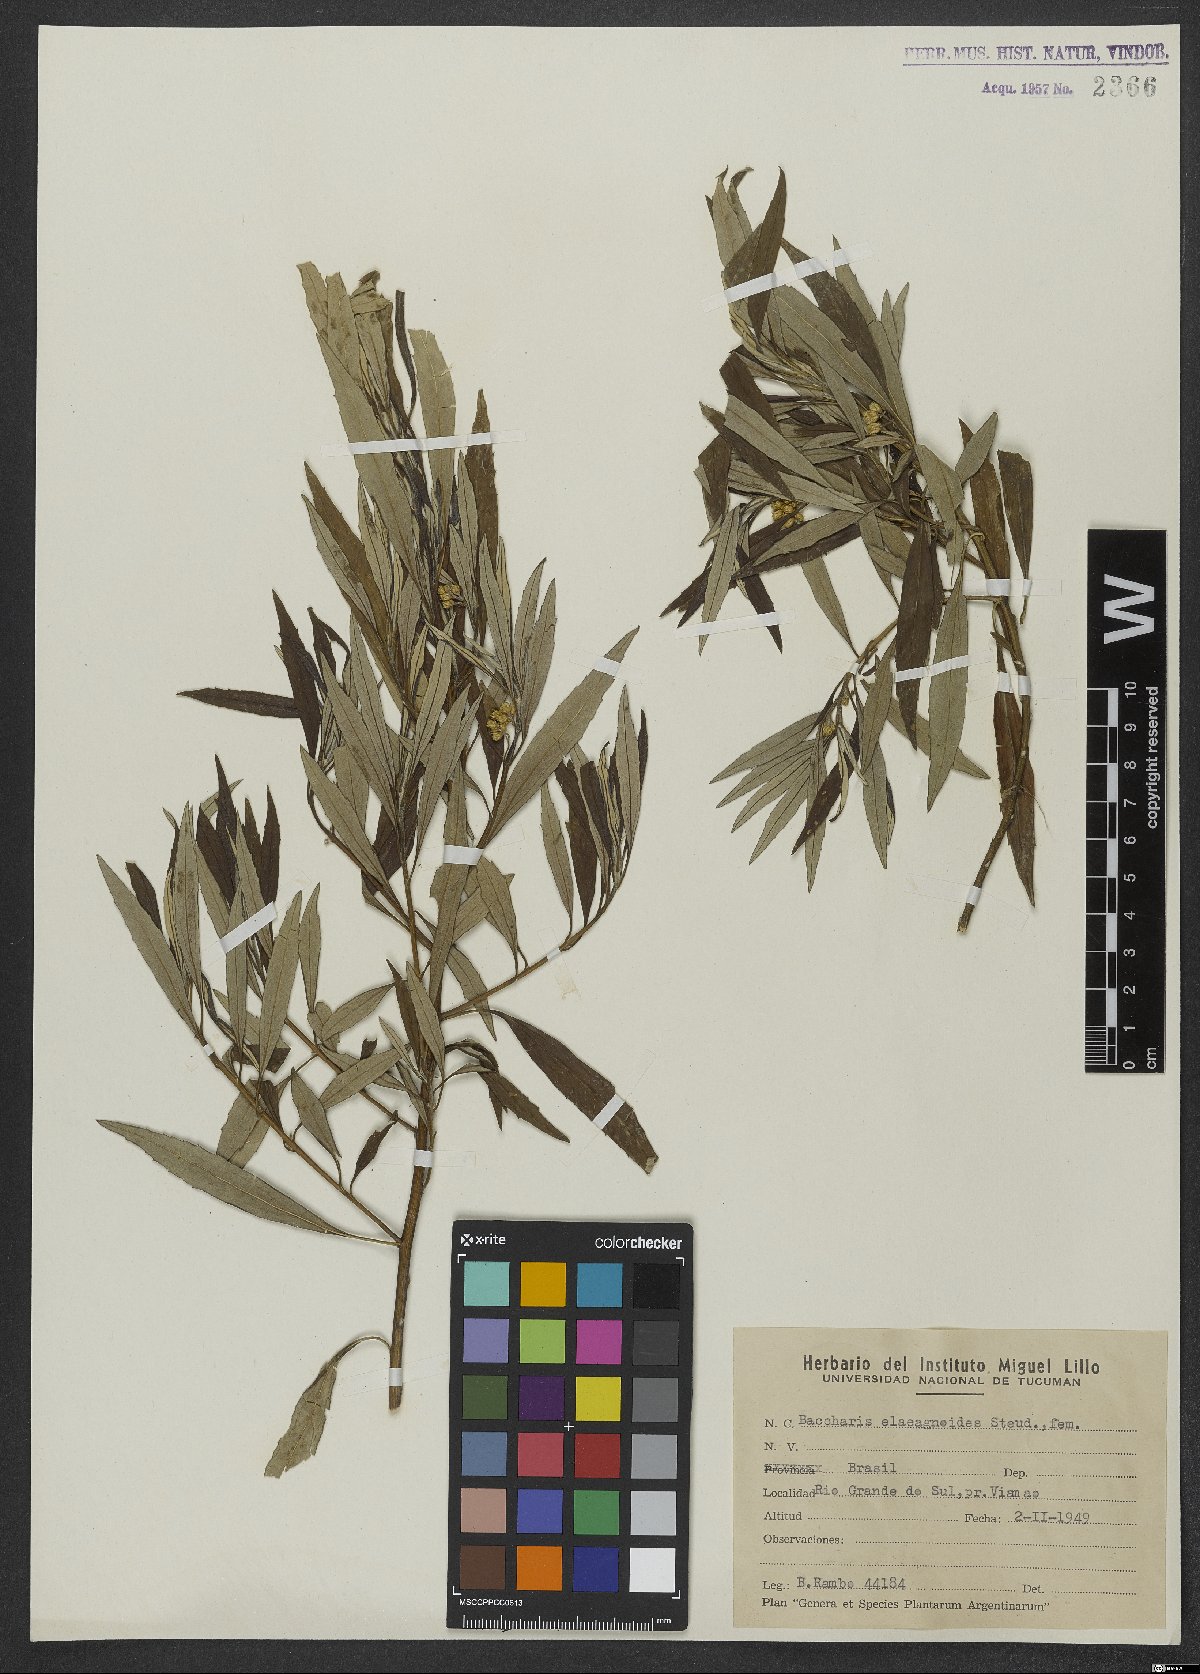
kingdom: Plantae
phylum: Tracheophyta
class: Magnoliopsida
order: Asterales
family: Asteraceae
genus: Baccharis
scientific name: Baccharis montana
